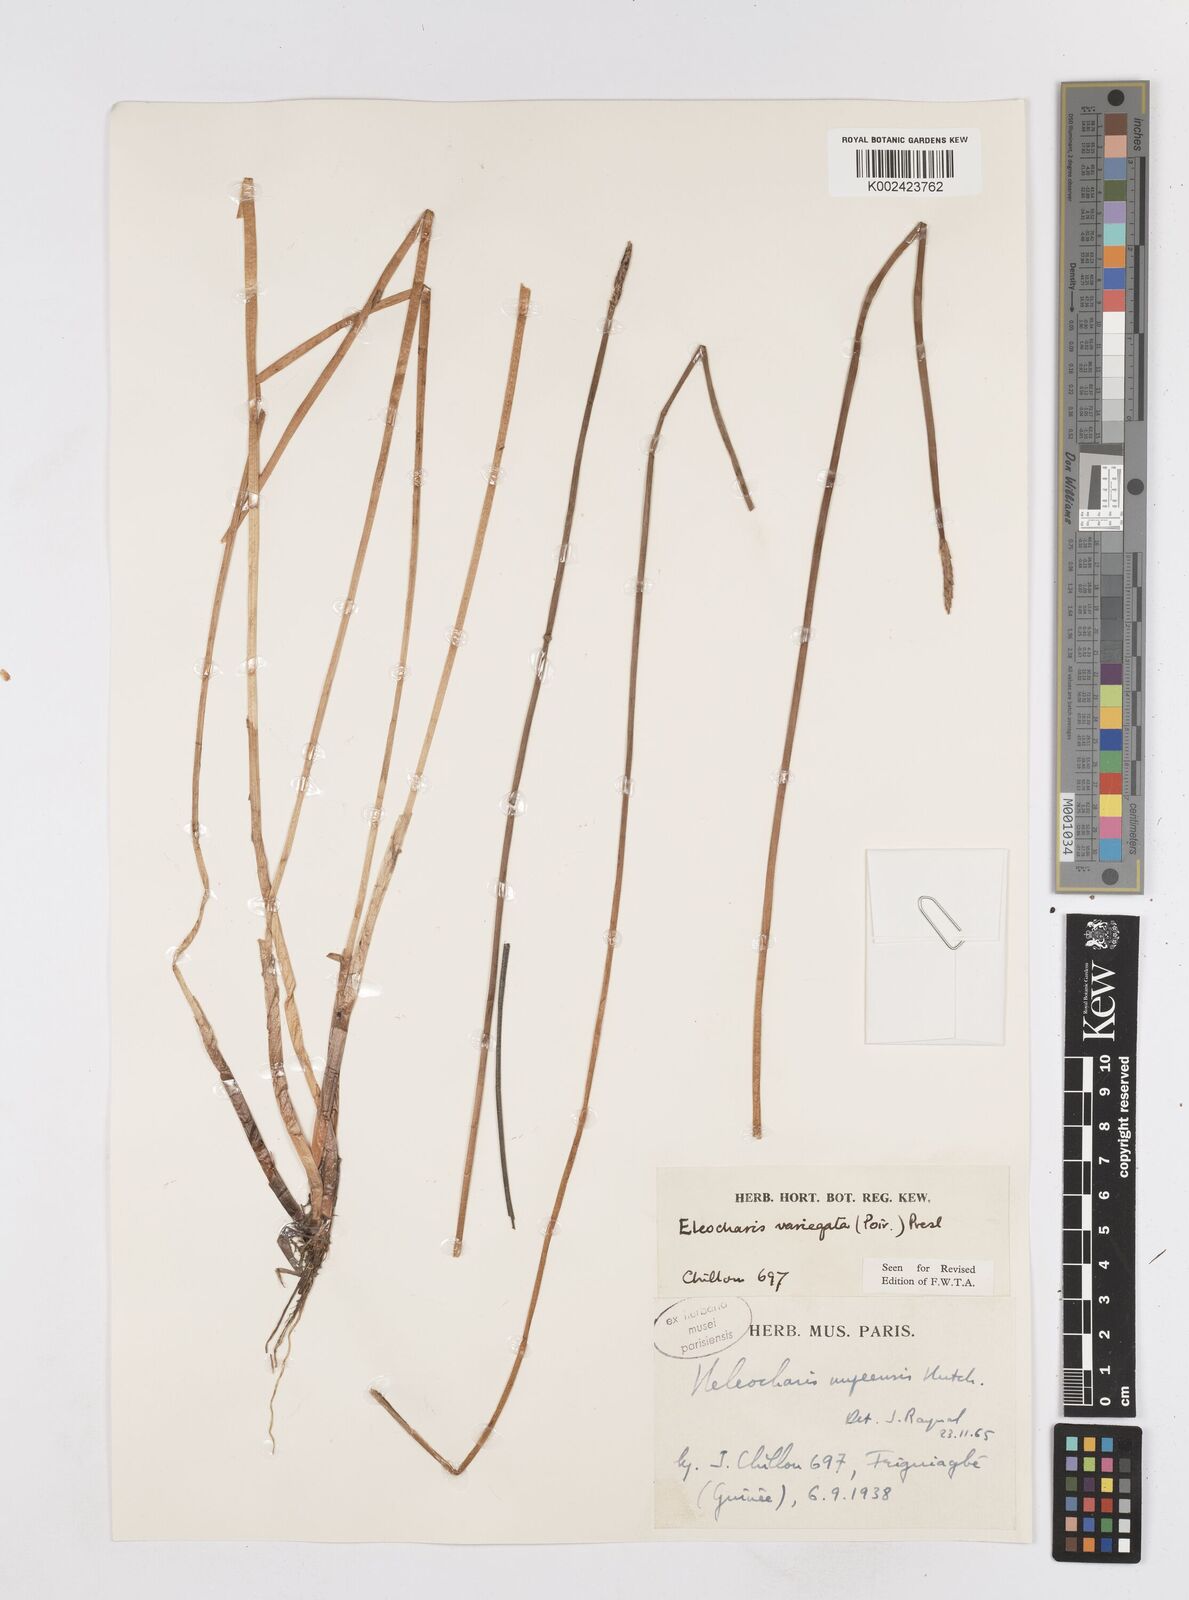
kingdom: Plantae
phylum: Tracheophyta
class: Liliopsida
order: Poales
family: Cyperaceae
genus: Eleocharis
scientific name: Eleocharis variegata
